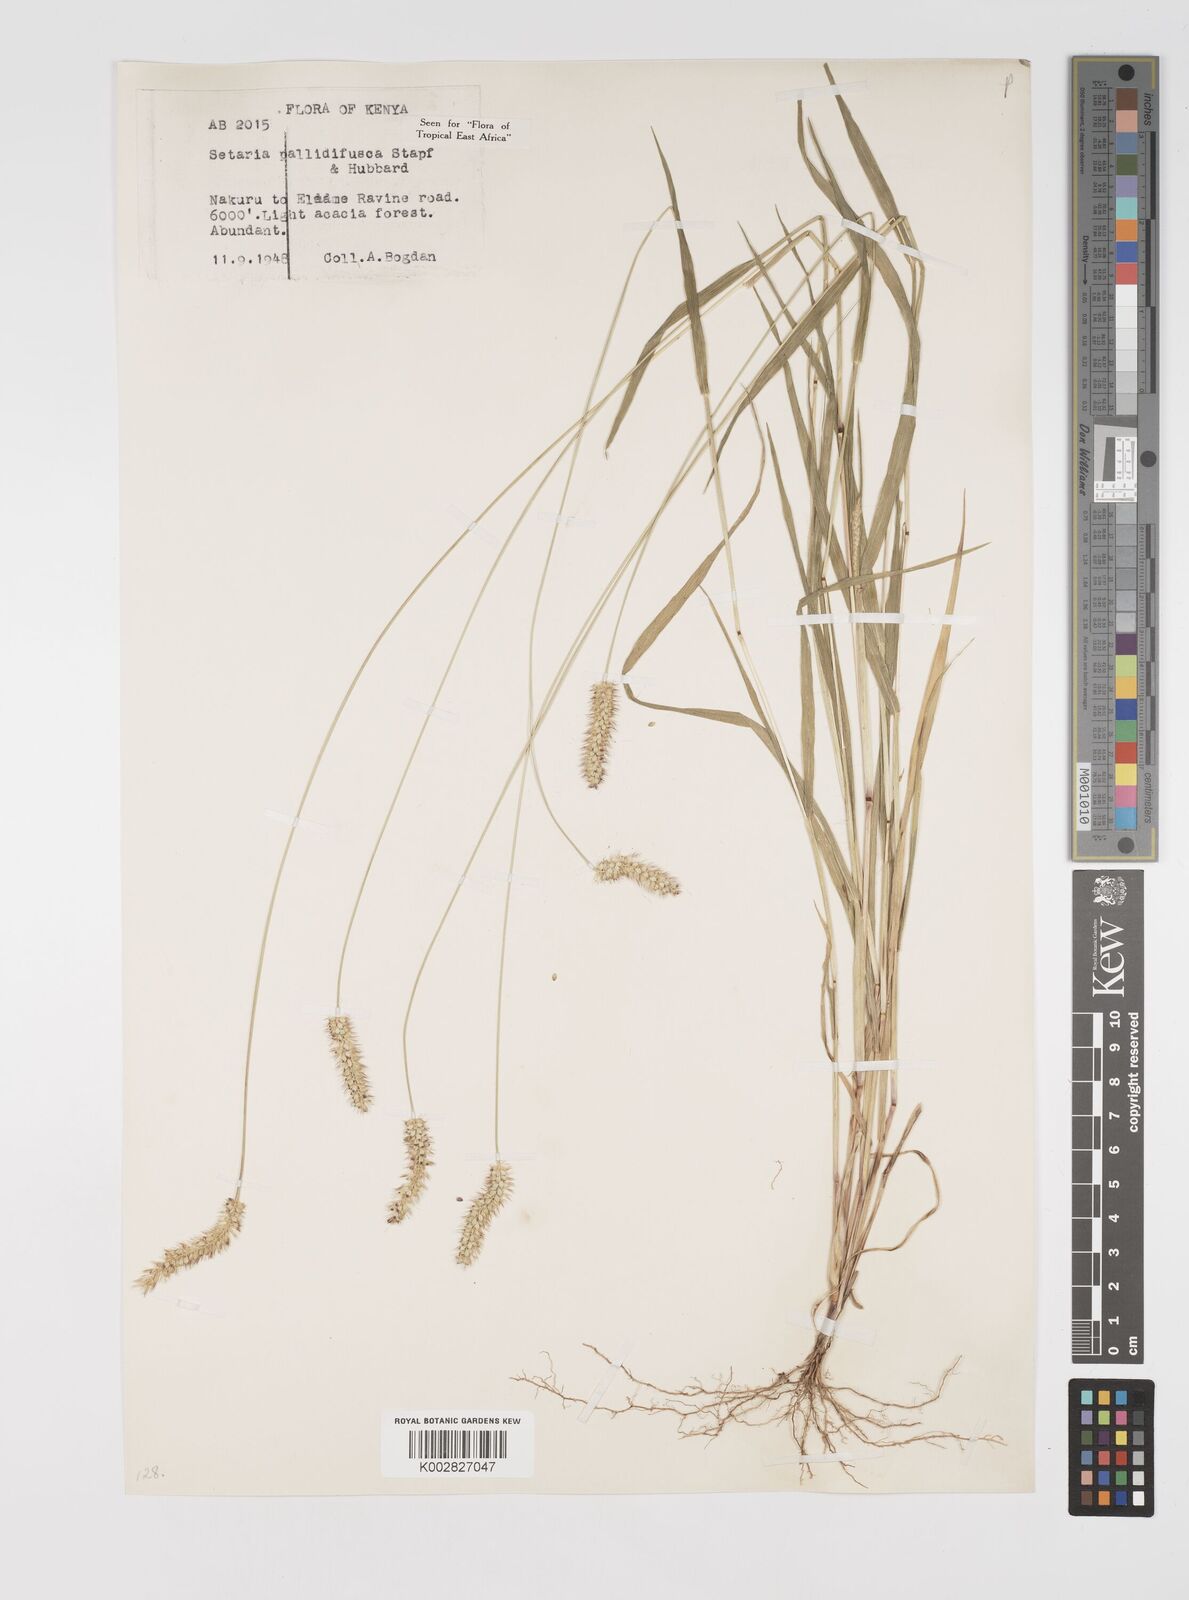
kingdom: Plantae
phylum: Tracheophyta
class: Liliopsida
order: Poales
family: Poaceae
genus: Setaria
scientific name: Setaria pumila
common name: Yellow bristle-grass
